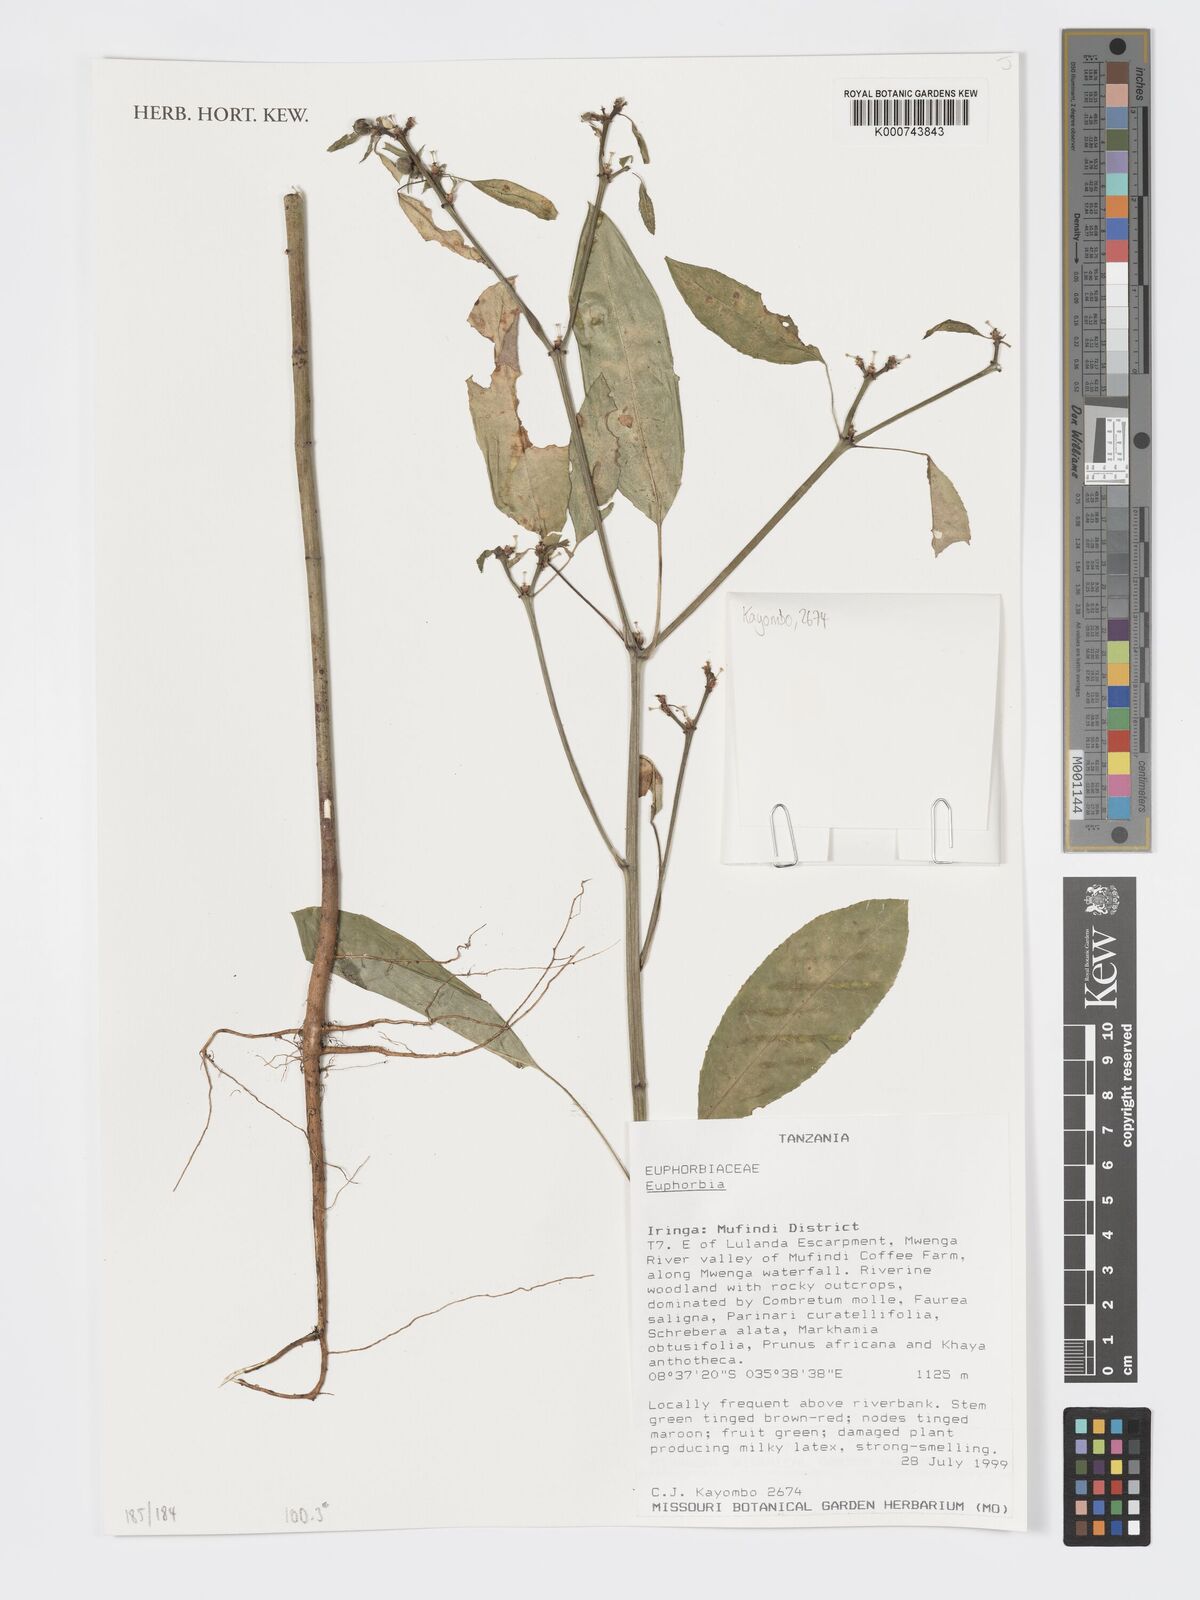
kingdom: Plantae
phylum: Tracheophyta
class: Magnoliopsida
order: Malpighiales
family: Euphorbiaceae
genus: Euphorbia
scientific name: Euphorbia
